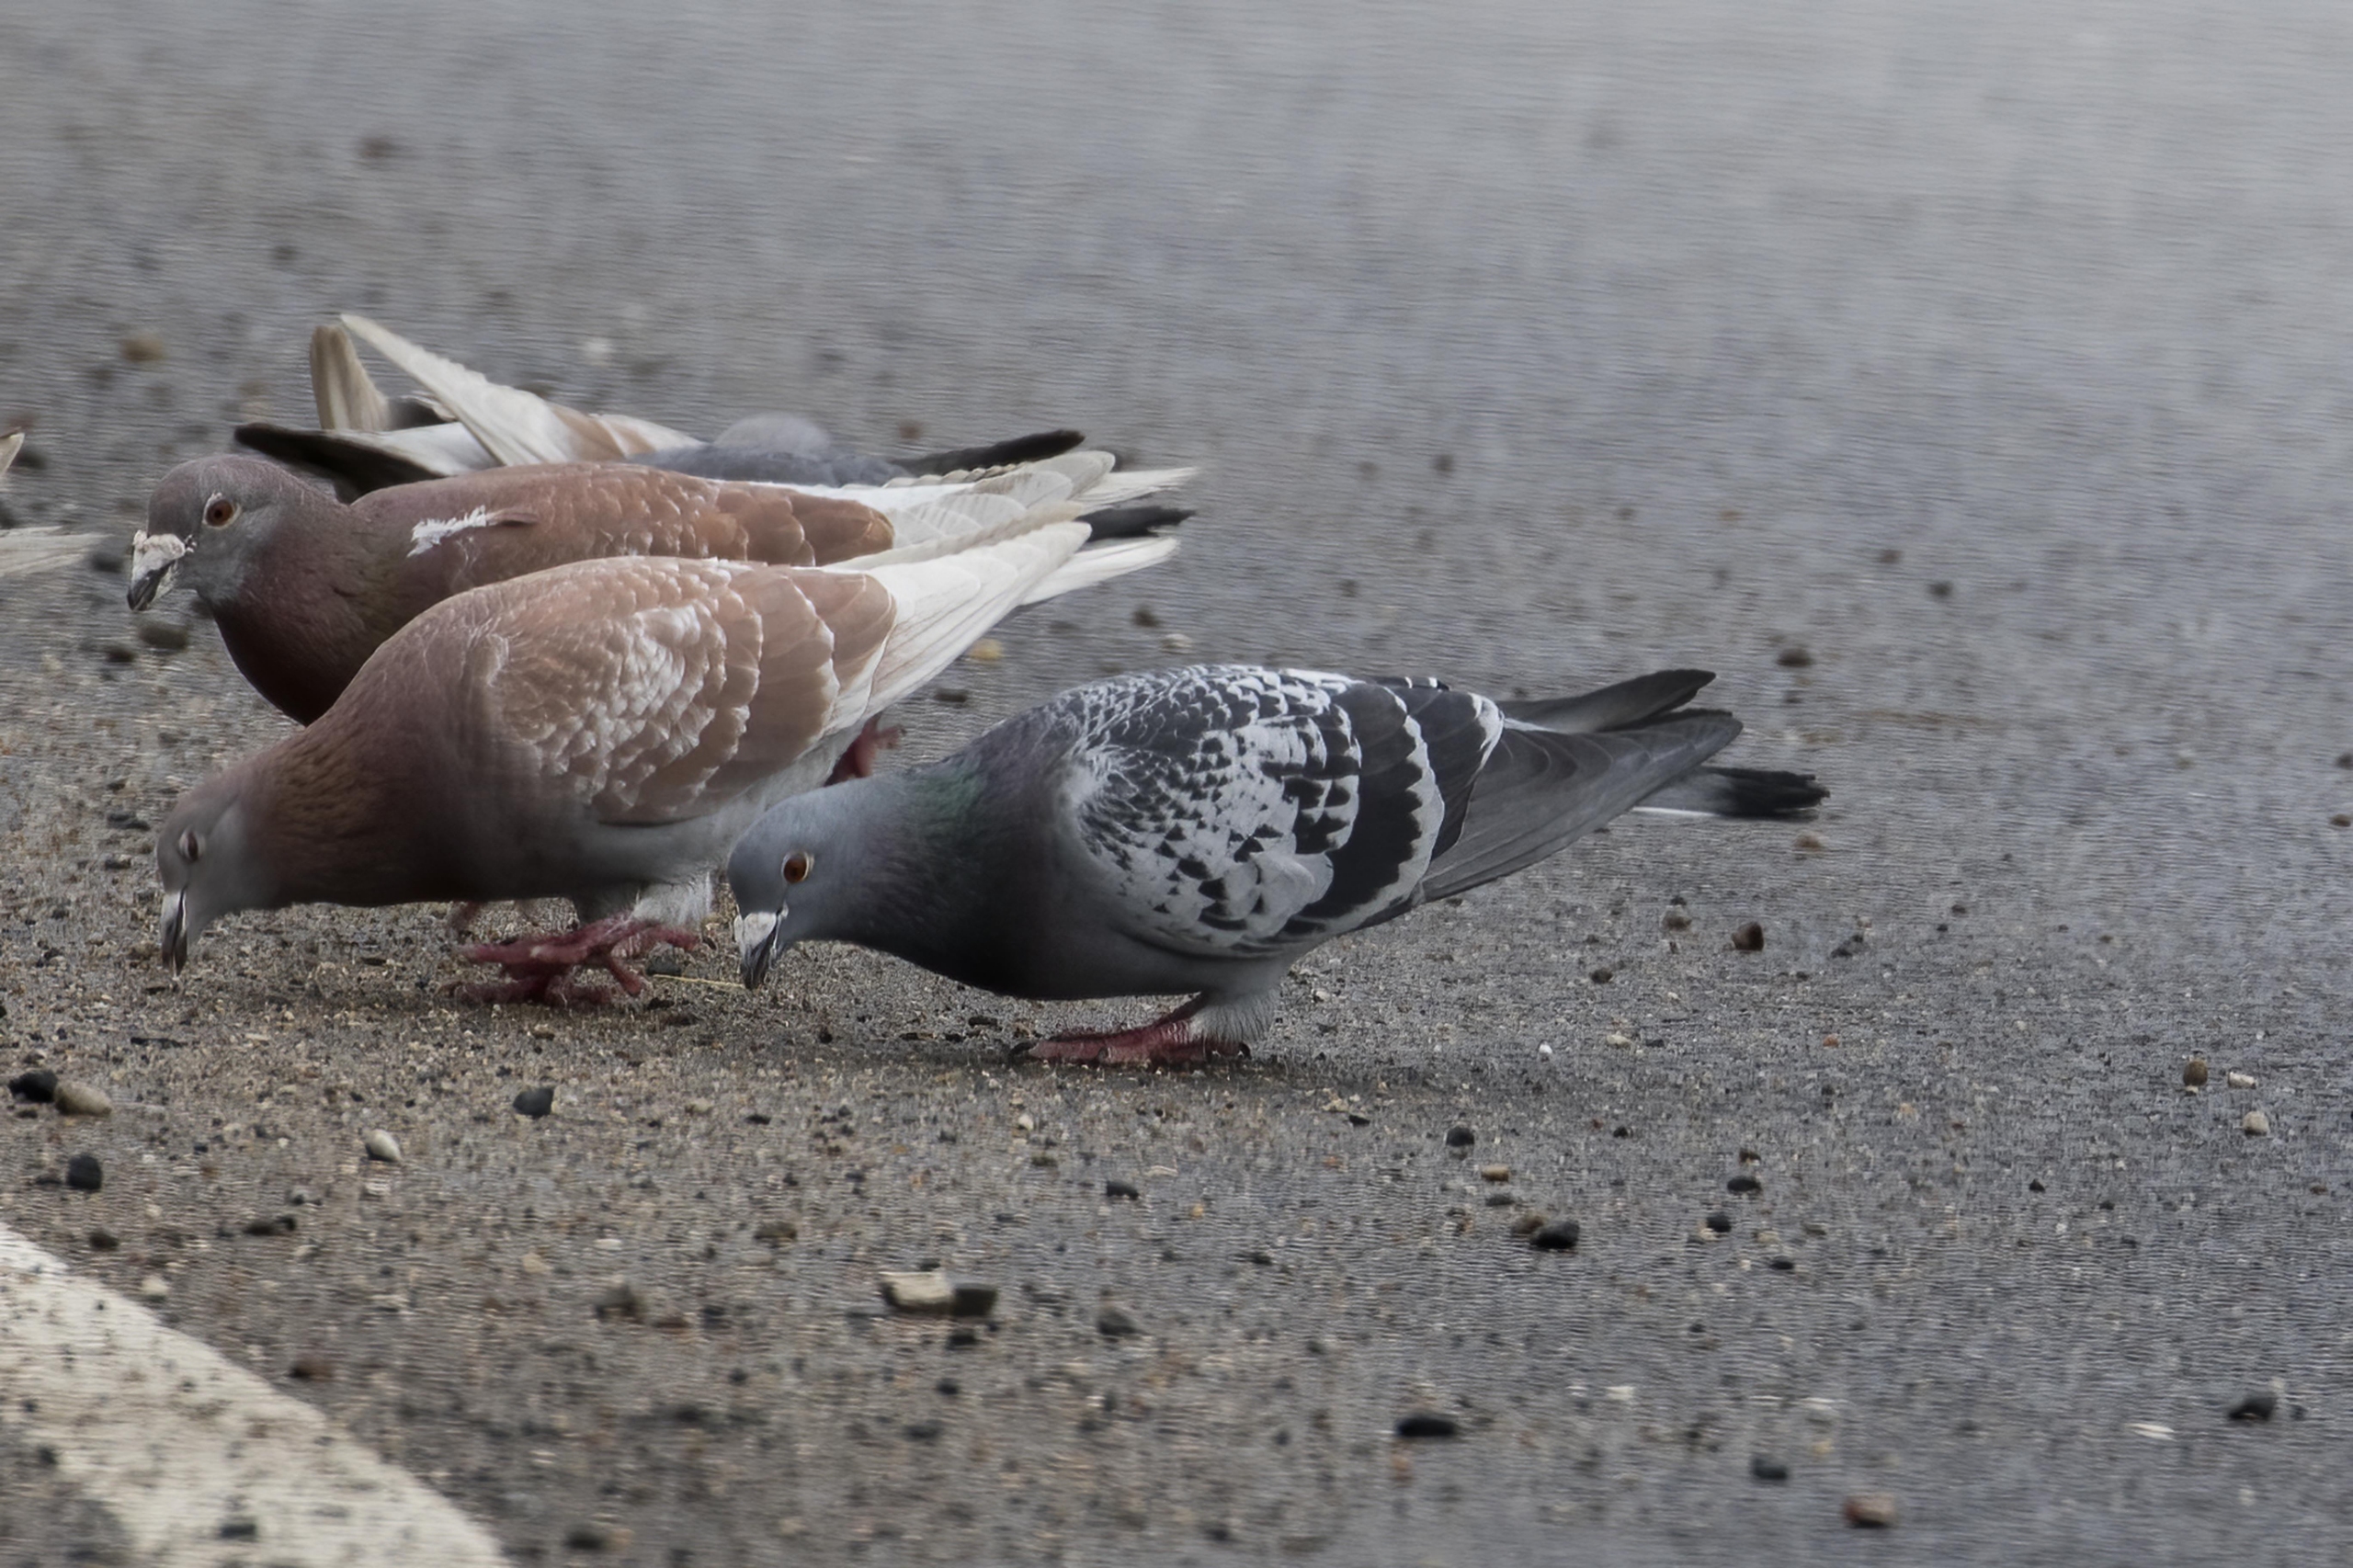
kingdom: Animalia
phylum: Chordata
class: Aves
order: Columbiformes
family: Columbidae
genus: Columba
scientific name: Columba livia
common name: Klippedue
